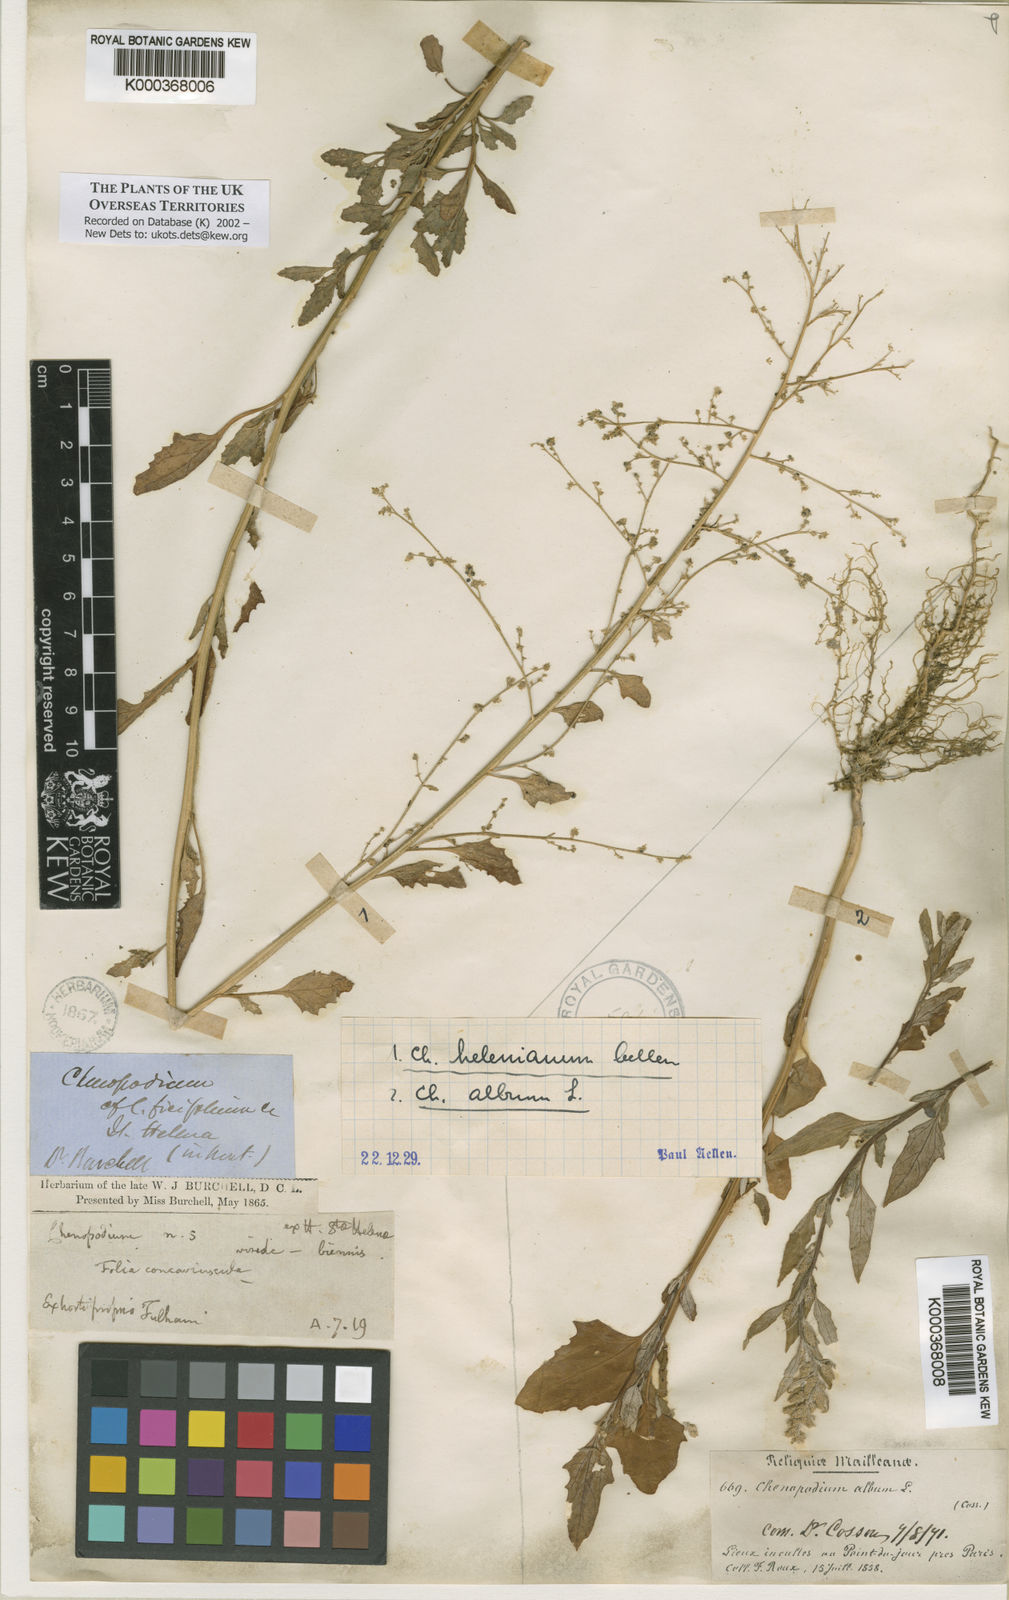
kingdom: Plantae
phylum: Tracheophyta
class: Magnoliopsida
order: Caryophyllales
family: Amaranthaceae
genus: Chenopodium
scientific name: Chenopodium
